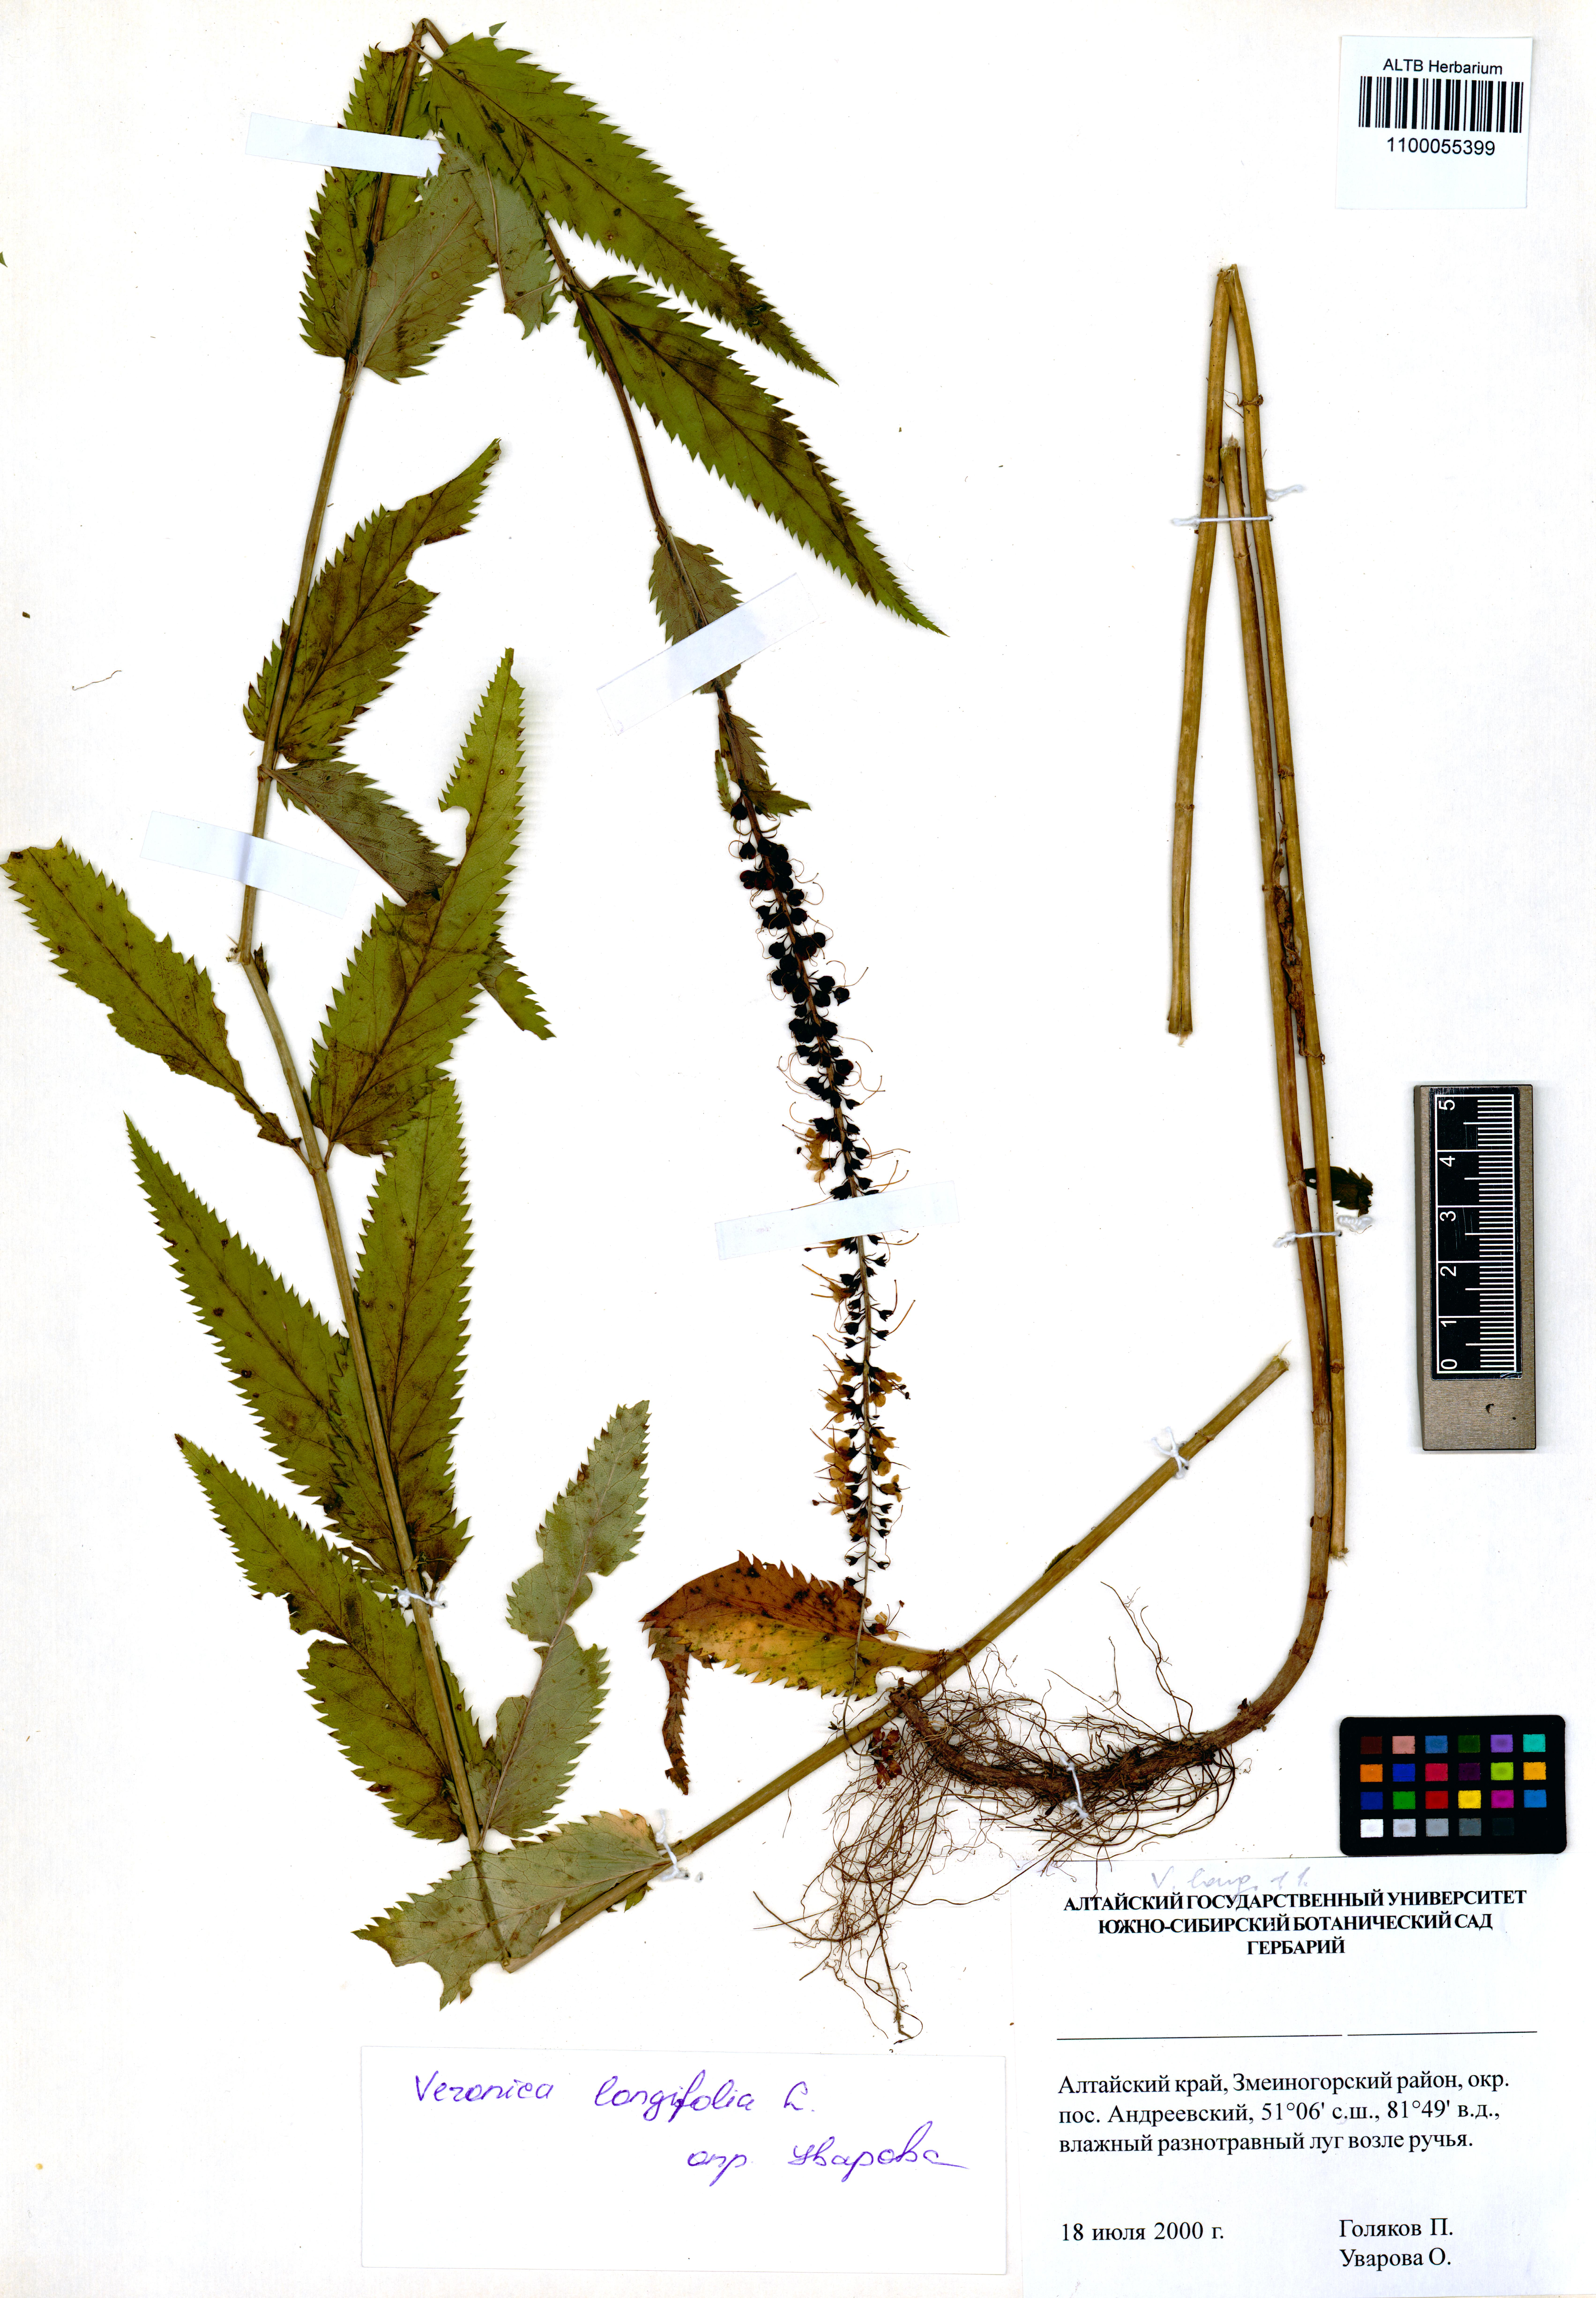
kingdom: Plantae
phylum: Tracheophyta
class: Magnoliopsida
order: Lamiales
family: Plantaginaceae
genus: Veronica
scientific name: Veronica longifolia
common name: Garden speedwell
